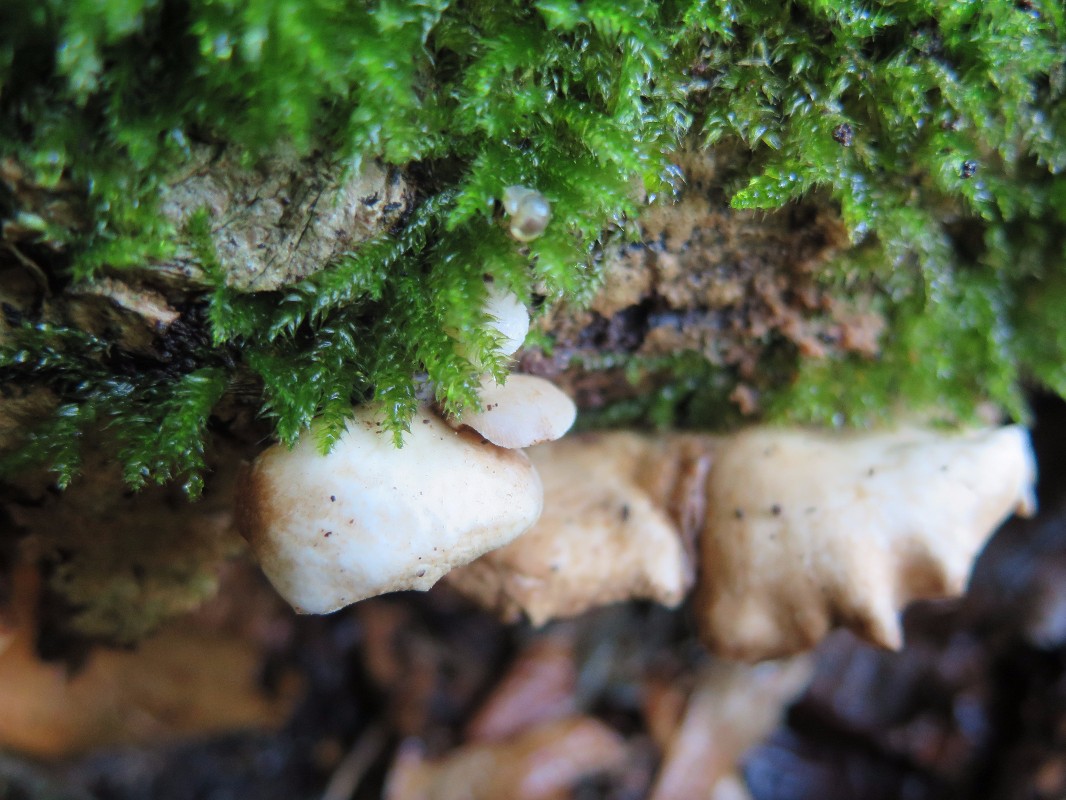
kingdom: Fungi
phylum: Basidiomycota
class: Agaricomycetes
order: Agaricales
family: Crepidotaceae
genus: Crepidotus
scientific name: Crepidotus mollis
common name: blød muslingesvamp
